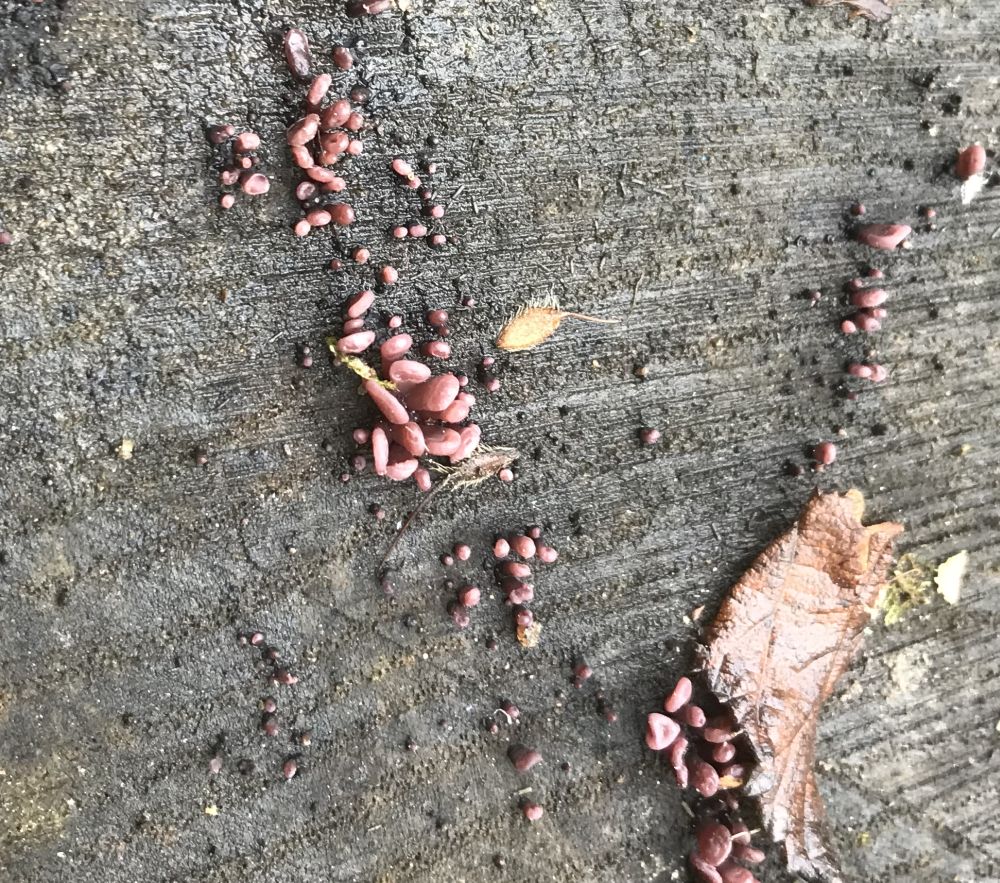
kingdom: Fungi
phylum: Ascomycota
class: Leotiomycetes
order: Helotiales
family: Gelatinodiscaceae
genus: Ascocoryne
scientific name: Ascocoryne sarcoides
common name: rødlilla sejskive
